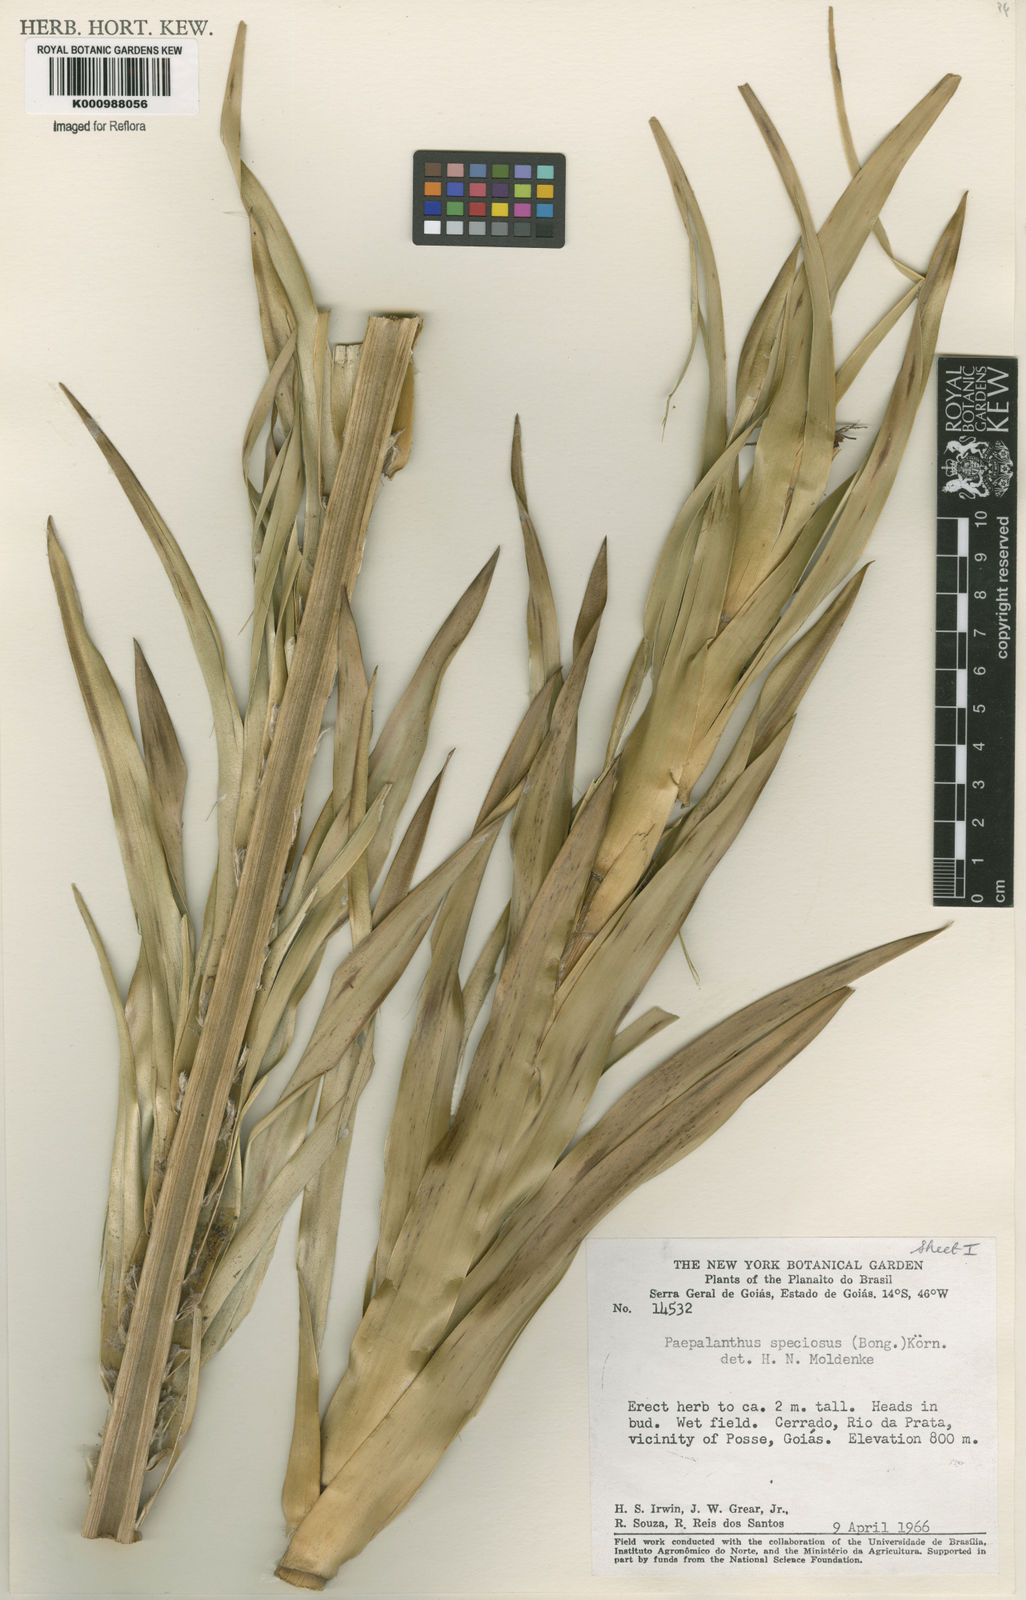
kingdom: Plantae
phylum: Tracheophyta
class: Liliopsida
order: Poales
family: Eriocaulaceae
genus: Paepalanthus
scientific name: Paepalanthus
